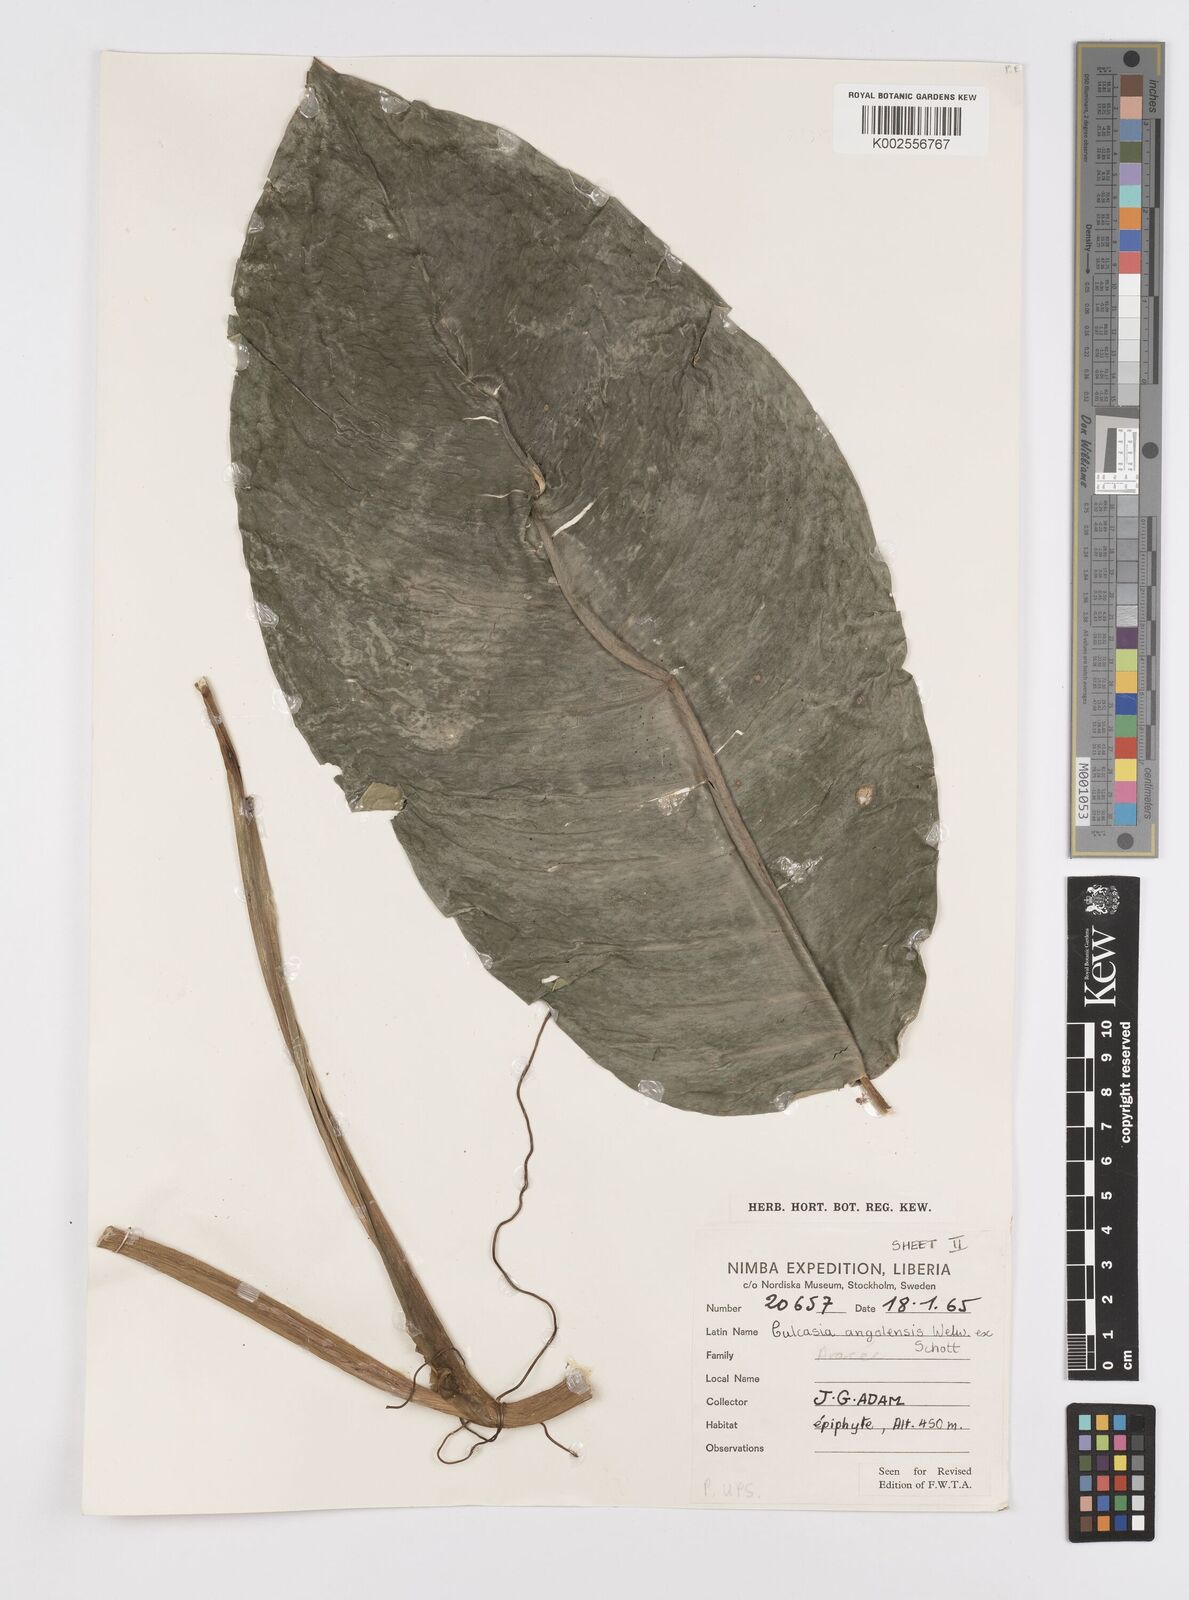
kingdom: Plantae
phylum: Tracheophyta
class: Liliopsida
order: Alismatales
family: Araceae
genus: Culcasia
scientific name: Culcasia angolensis
